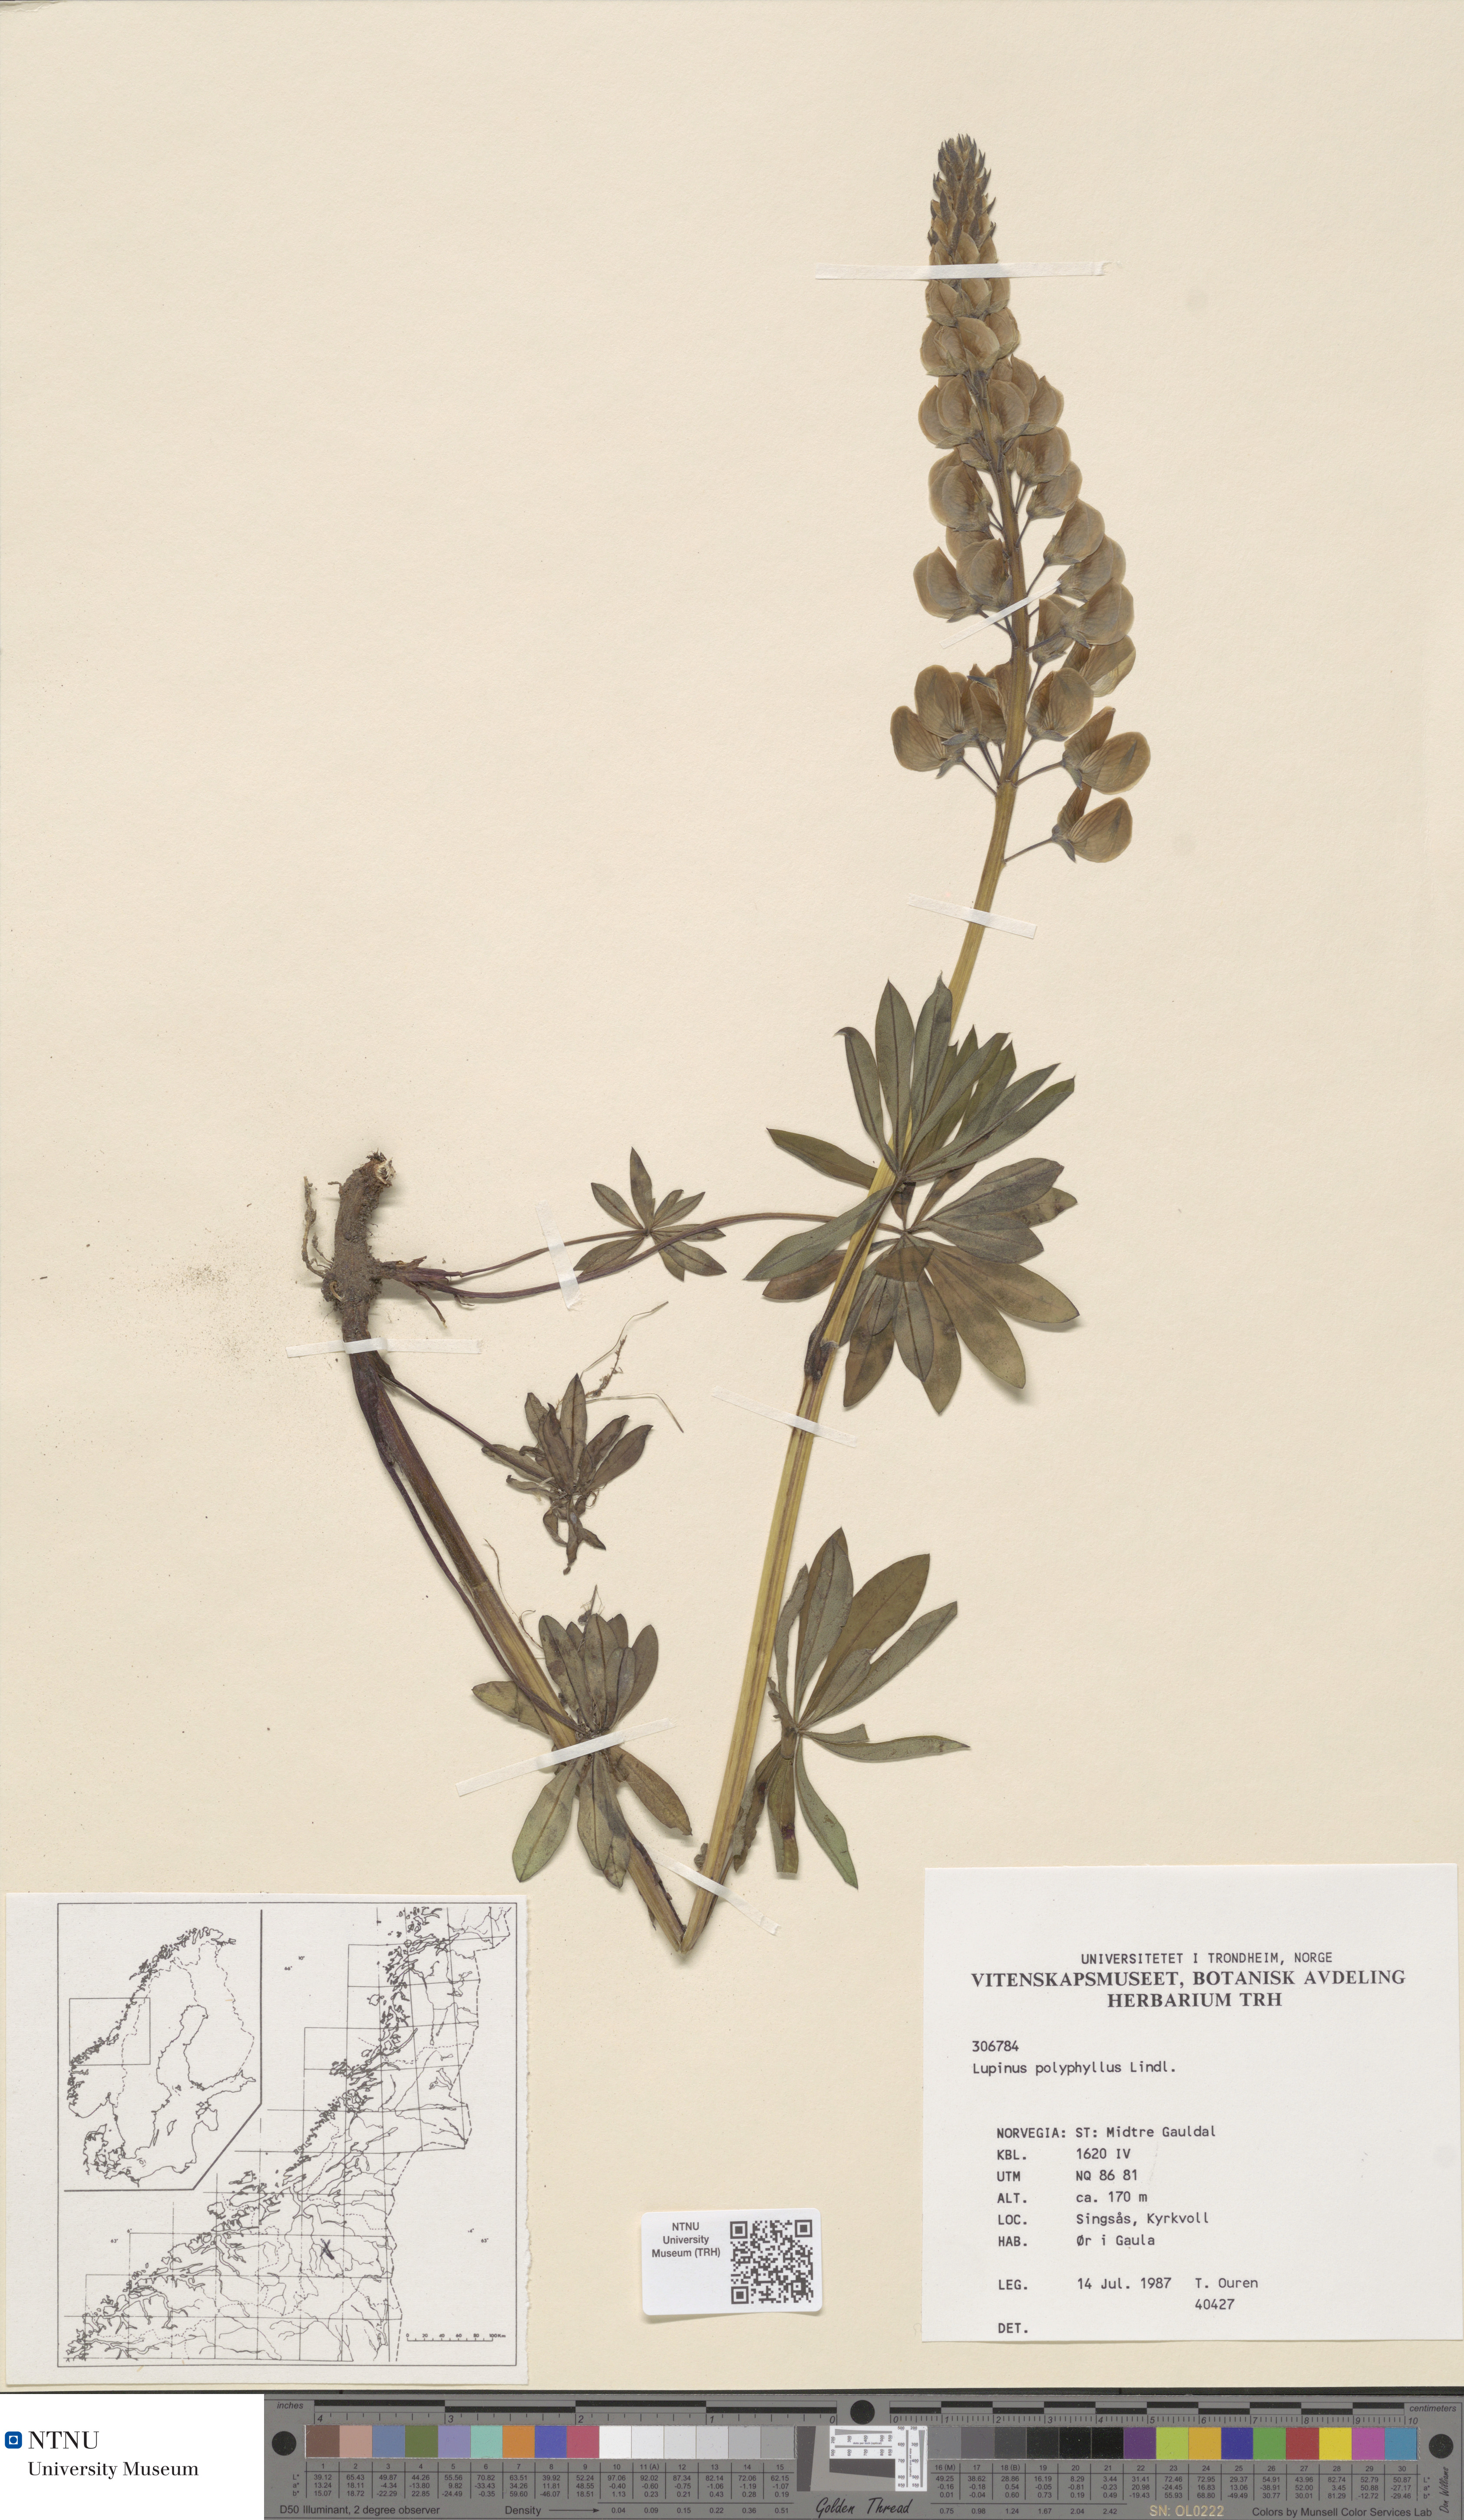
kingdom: Plantae
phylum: Tracheophyta
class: Magnoliopsida
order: Fabales
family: Fabaceae
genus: Lupinus
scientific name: Lupinus polyphyllus
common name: Garden lupin
